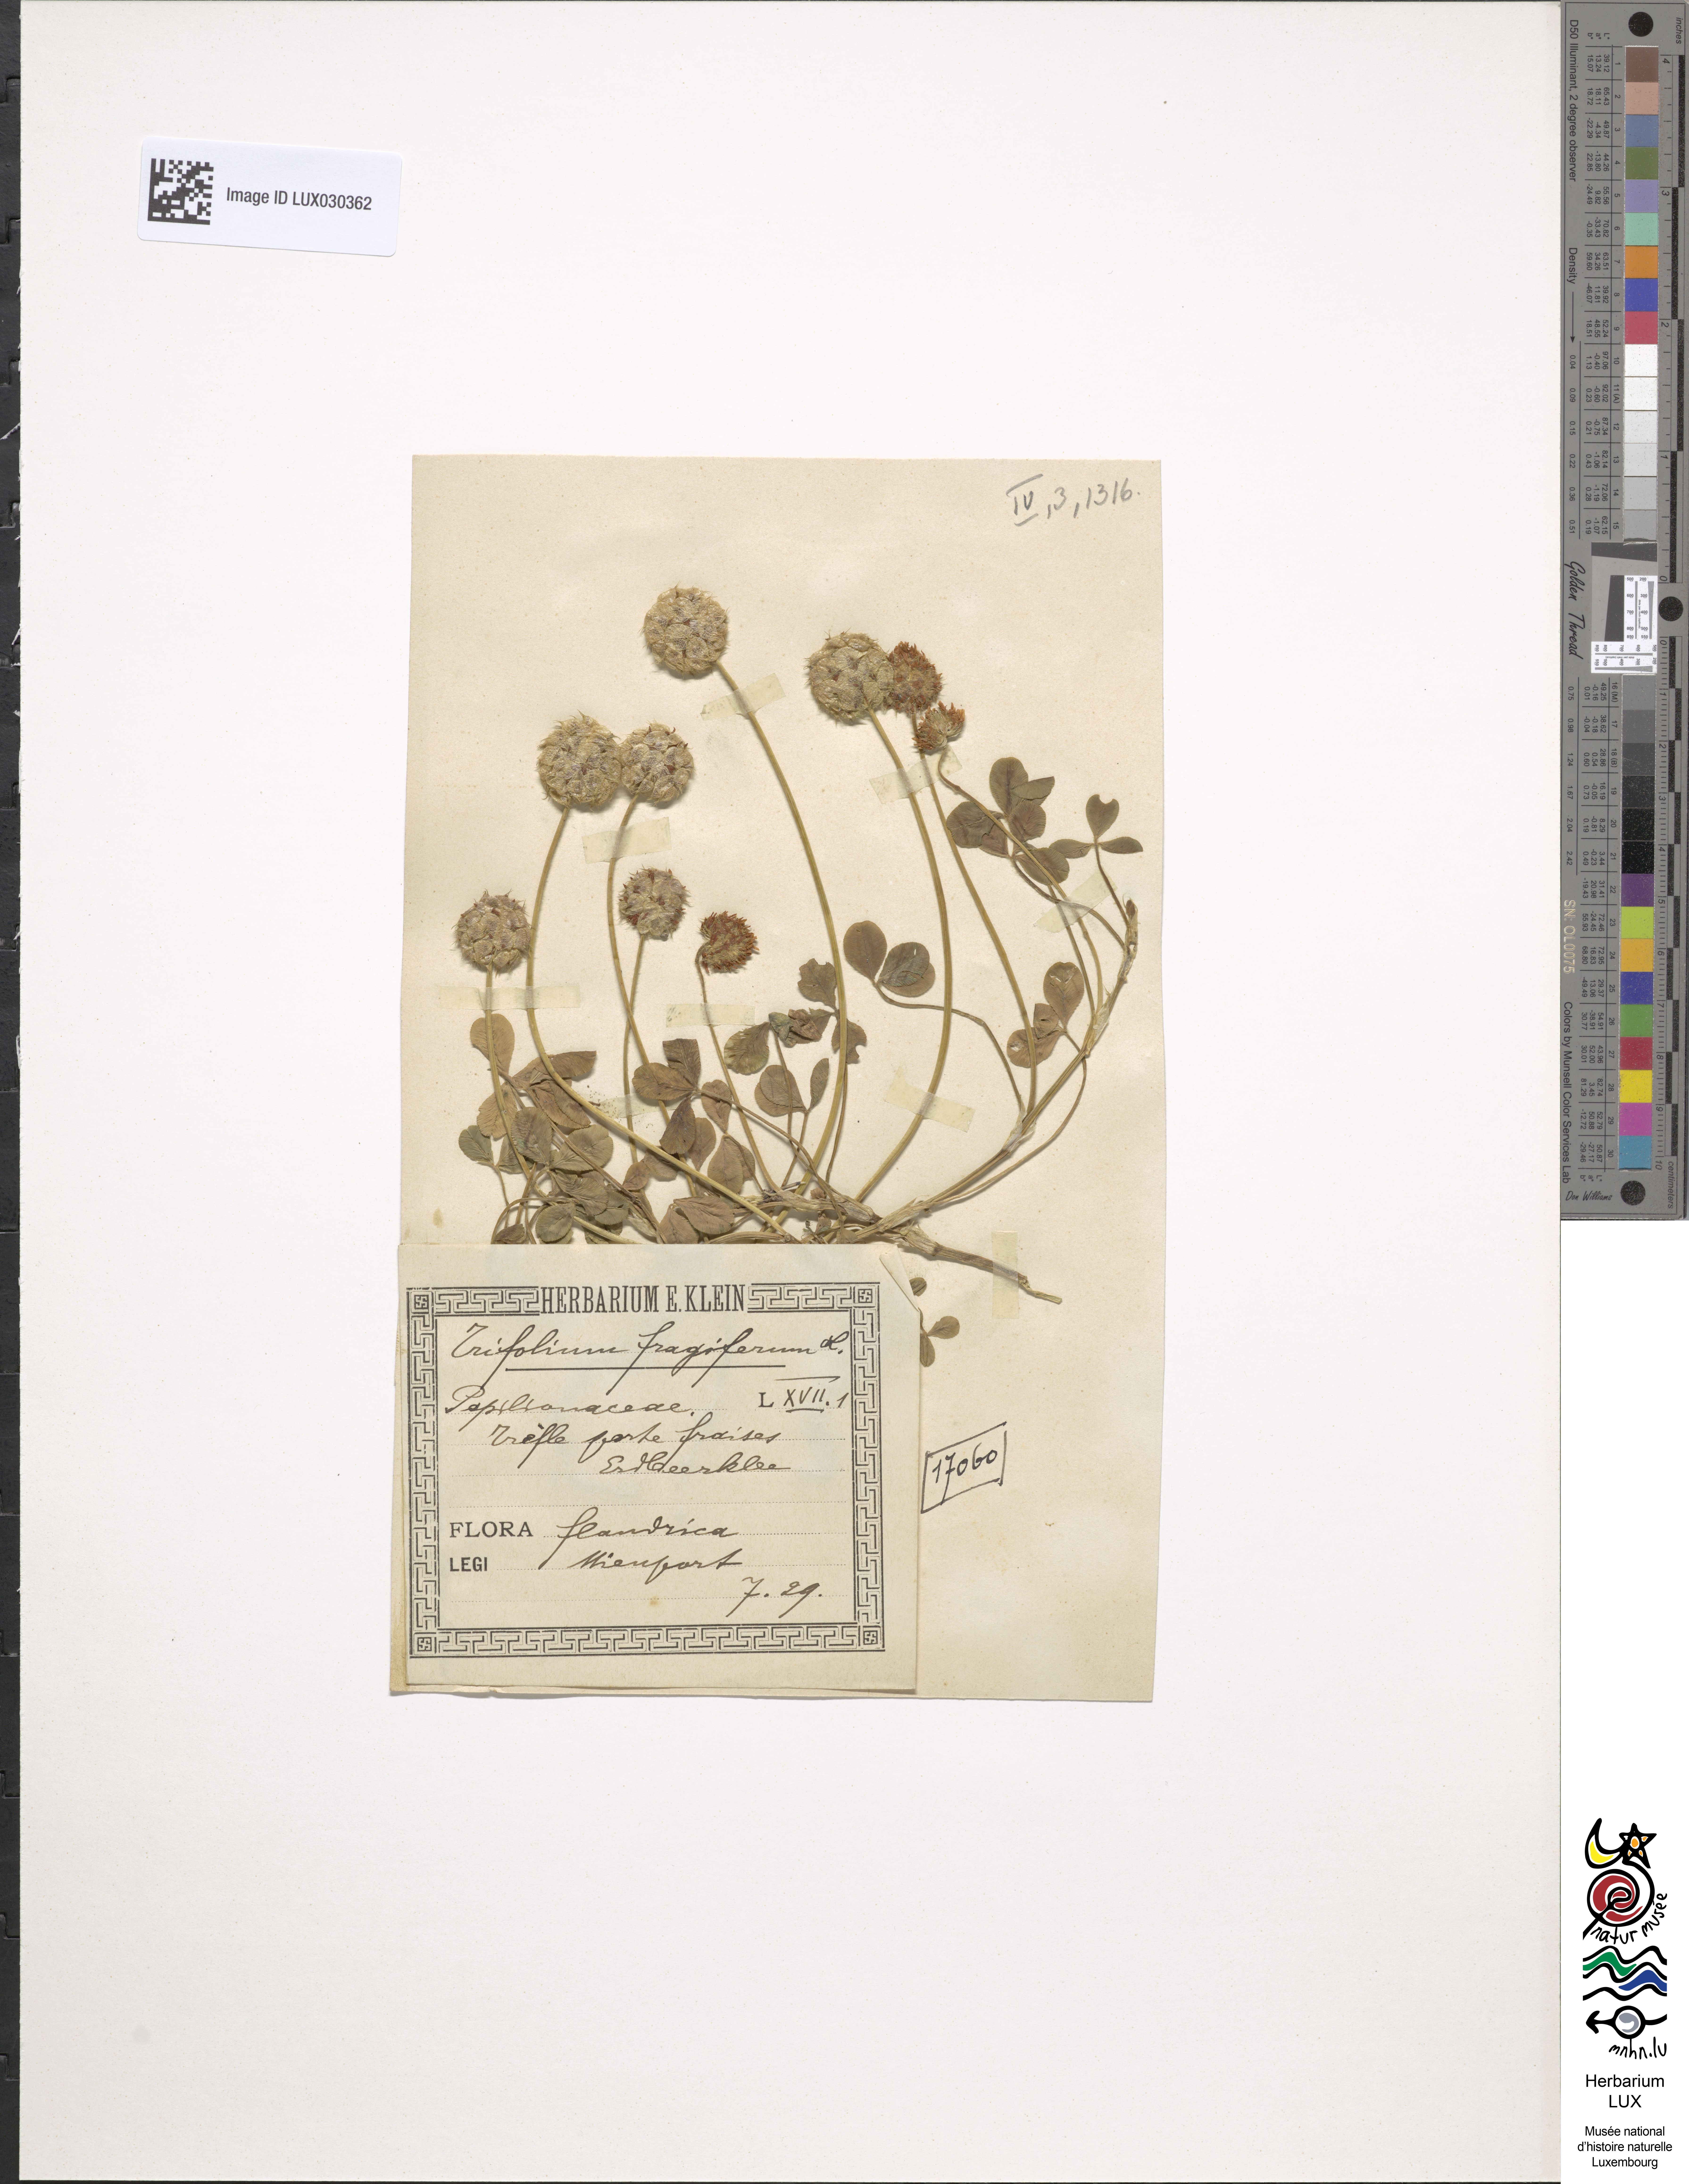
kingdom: Plantae
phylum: Tracheophyta
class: Magnoliopsida
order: Fabales
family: Fabaceae
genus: Trifolium
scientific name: Trifolium fragiferum
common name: Strawberry clover
